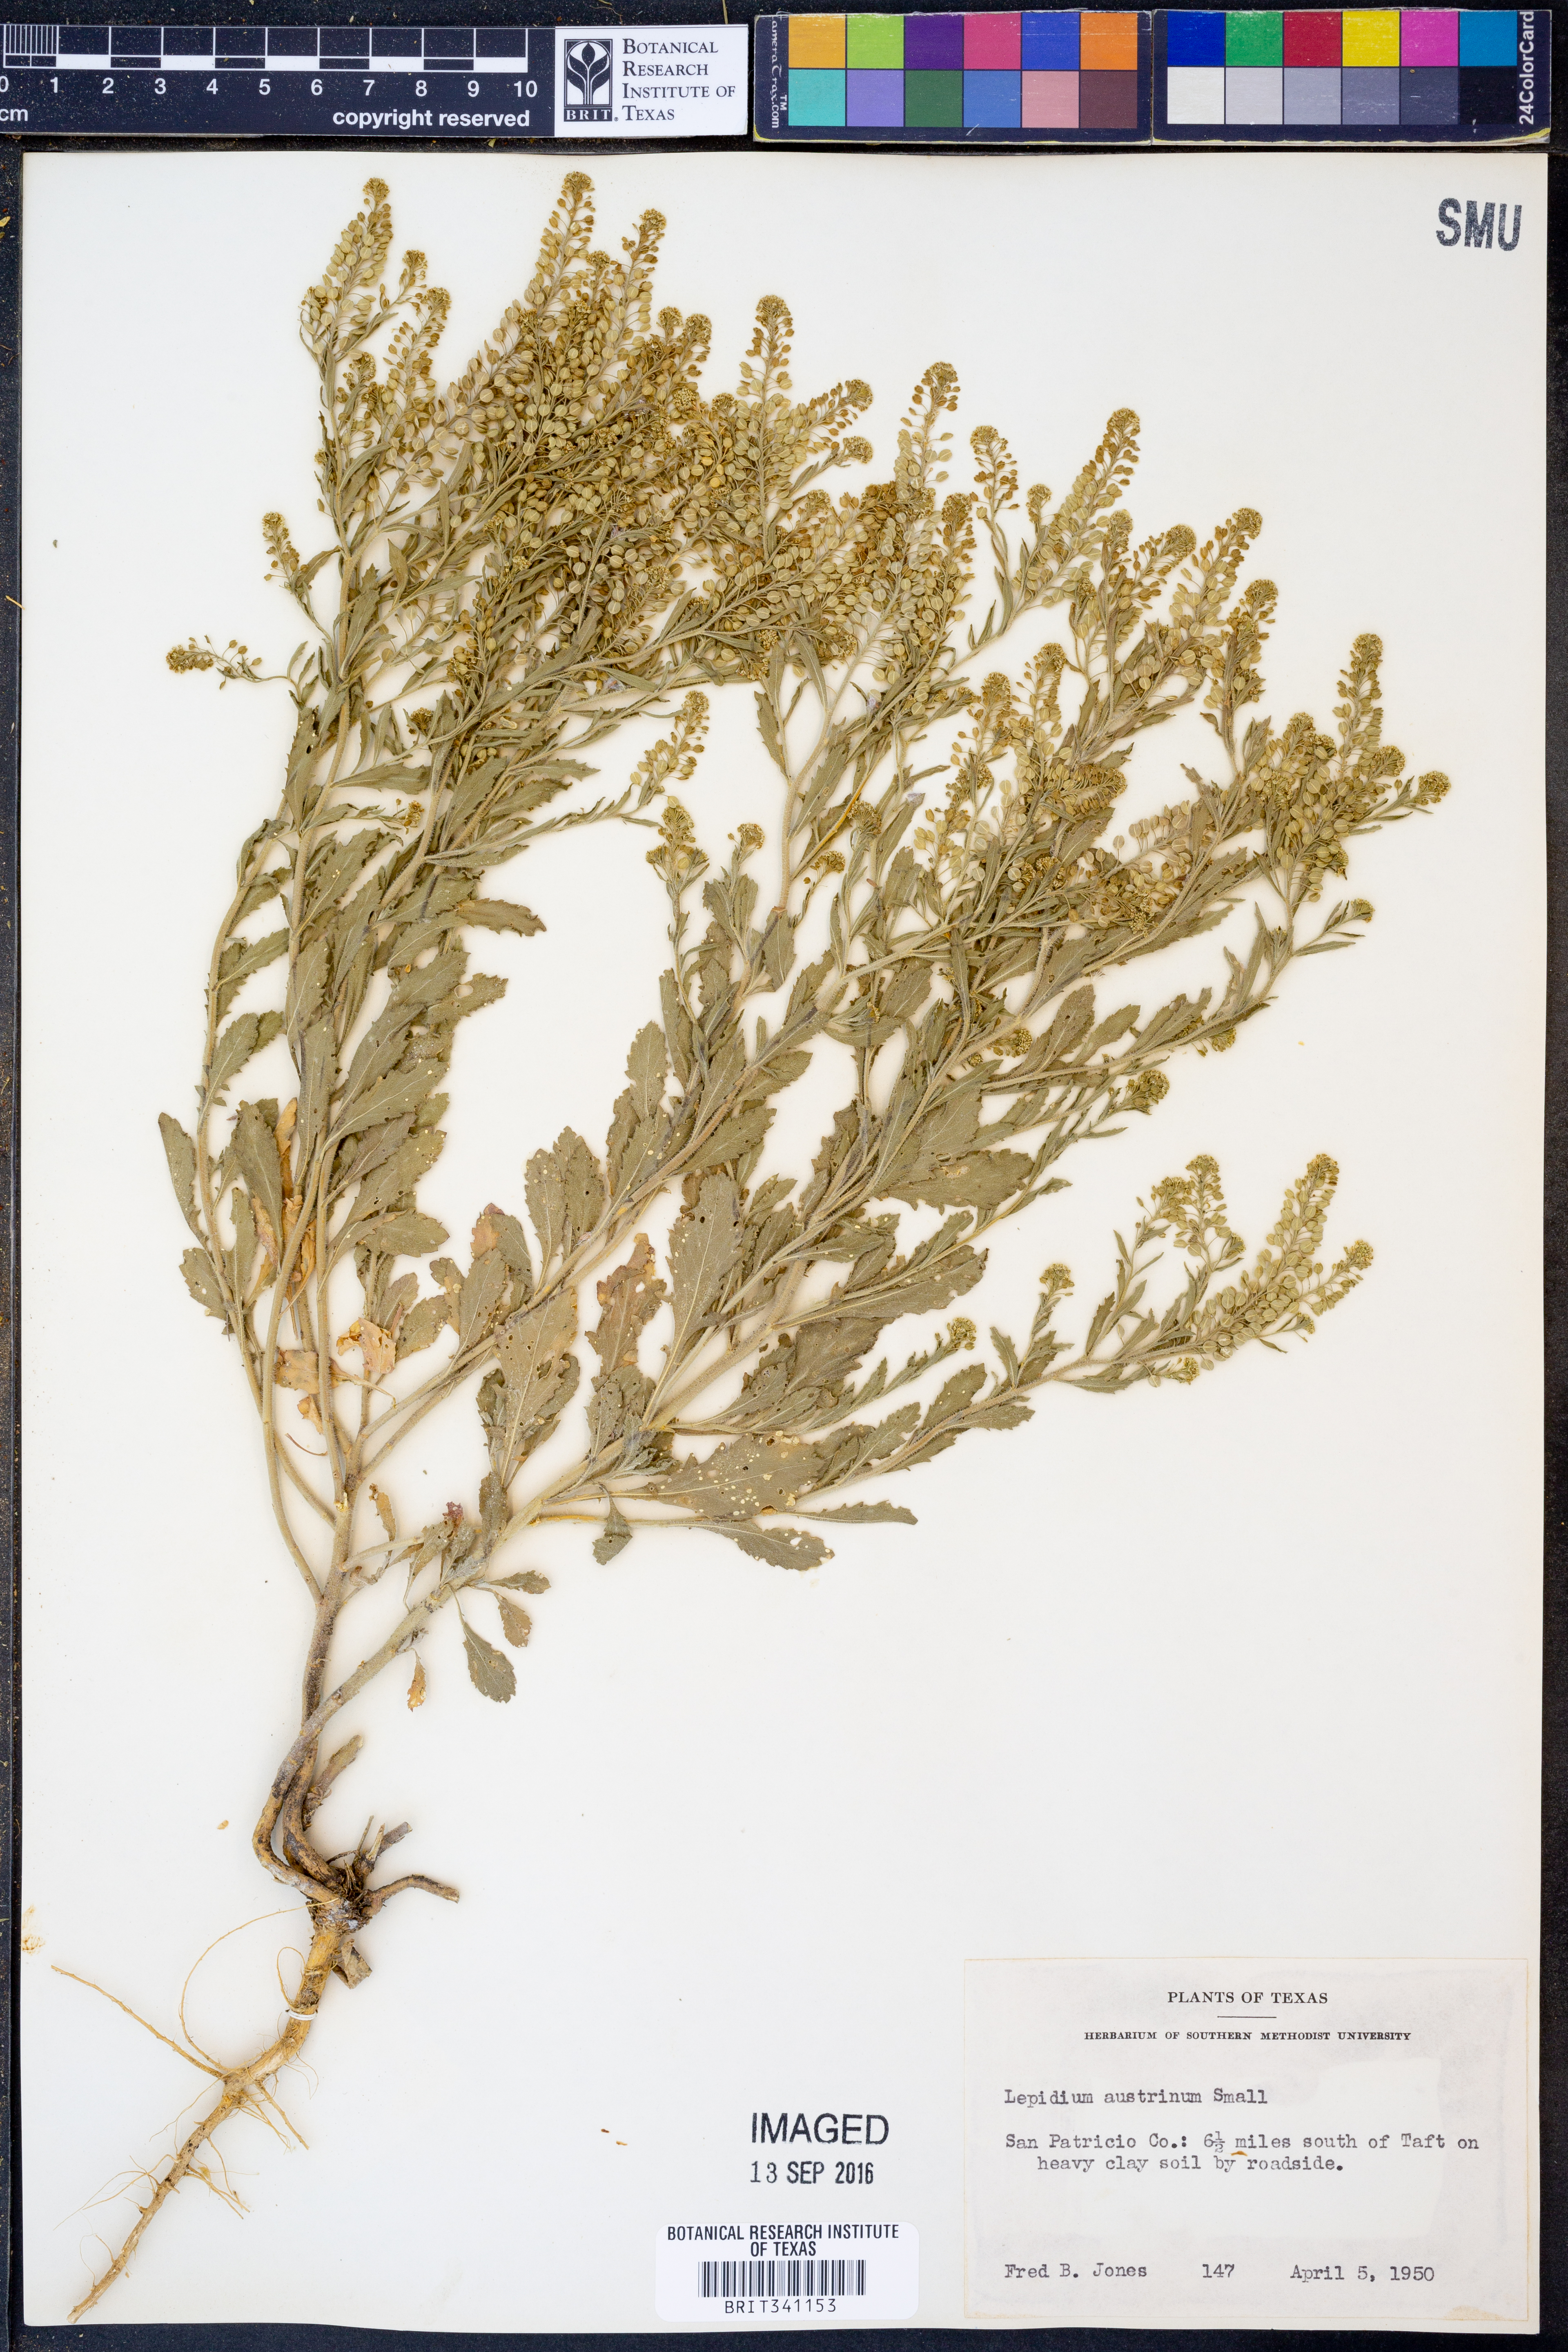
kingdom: Plantae
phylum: Tracheophyta
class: Magnoliopsida
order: Brassicales
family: Brassicaceae
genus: Lepidium
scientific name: Lepidium austrinum
